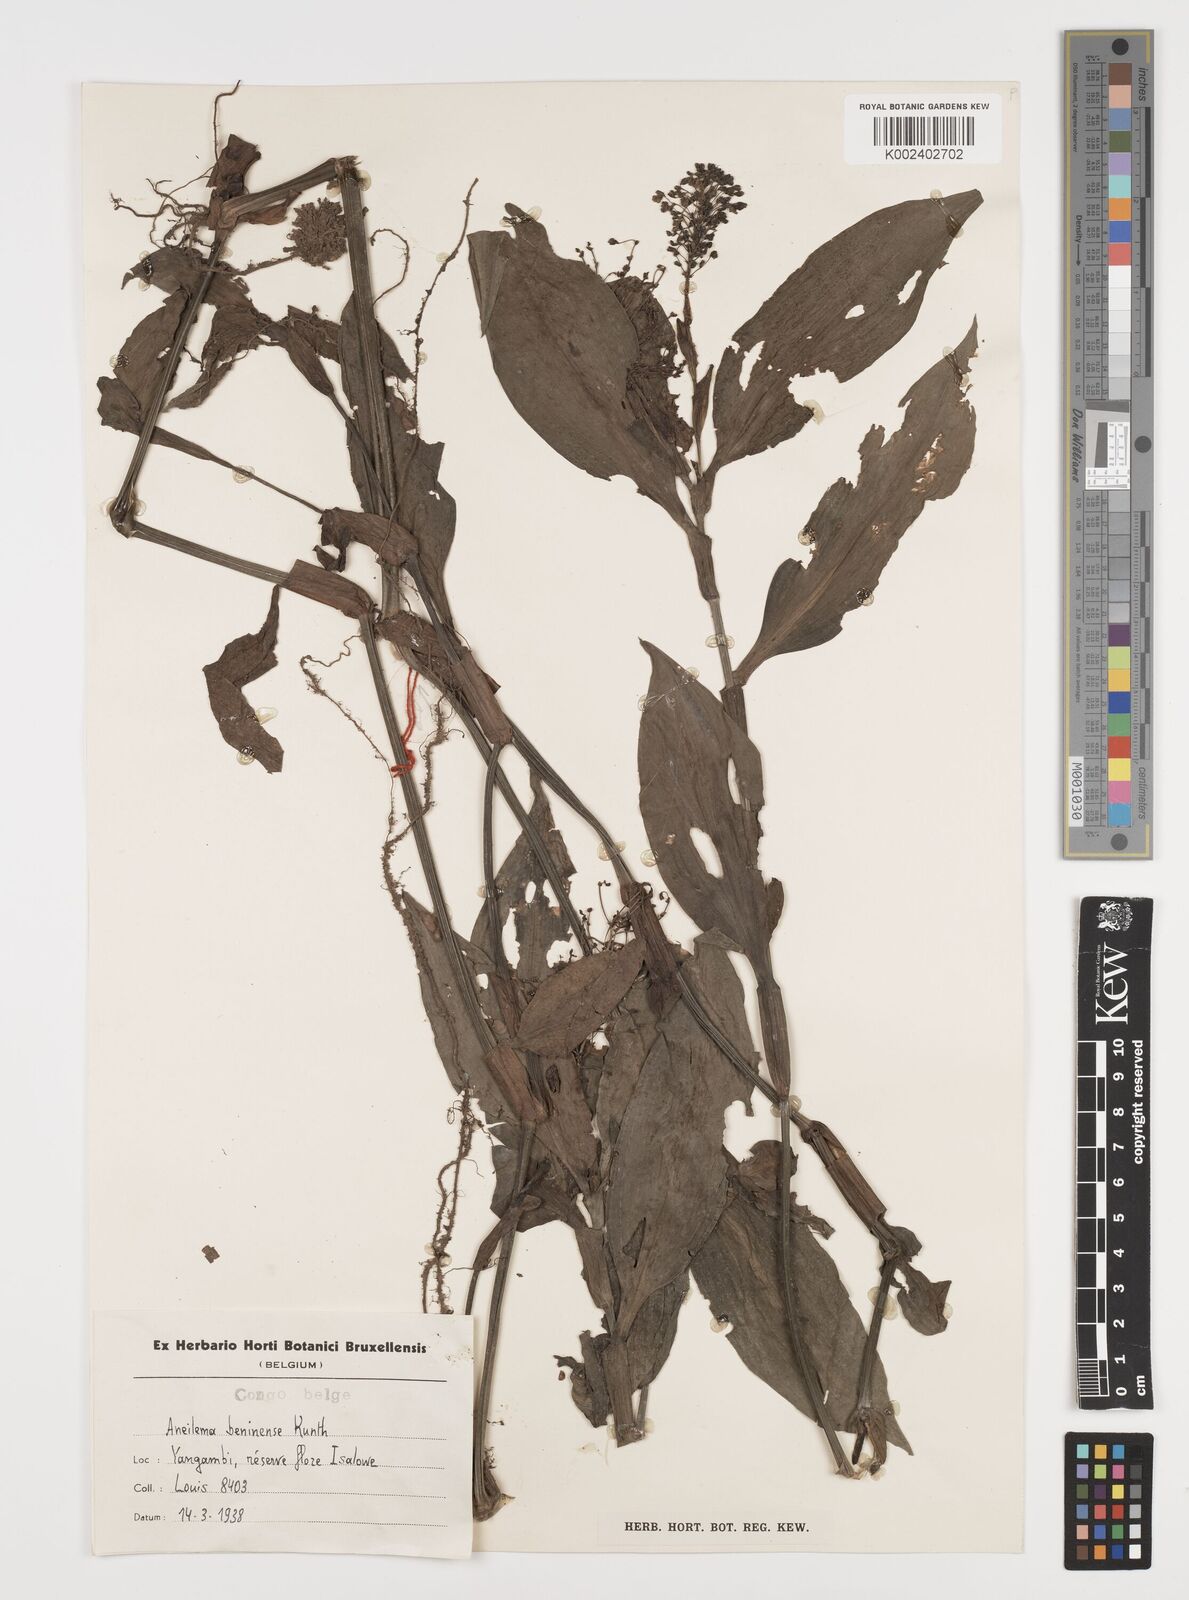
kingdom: Plantae
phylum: Tracheophyta
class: Liliopsida
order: Commelinales
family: Commelinaceae
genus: Aneilema
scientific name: Aneilema beniniense
